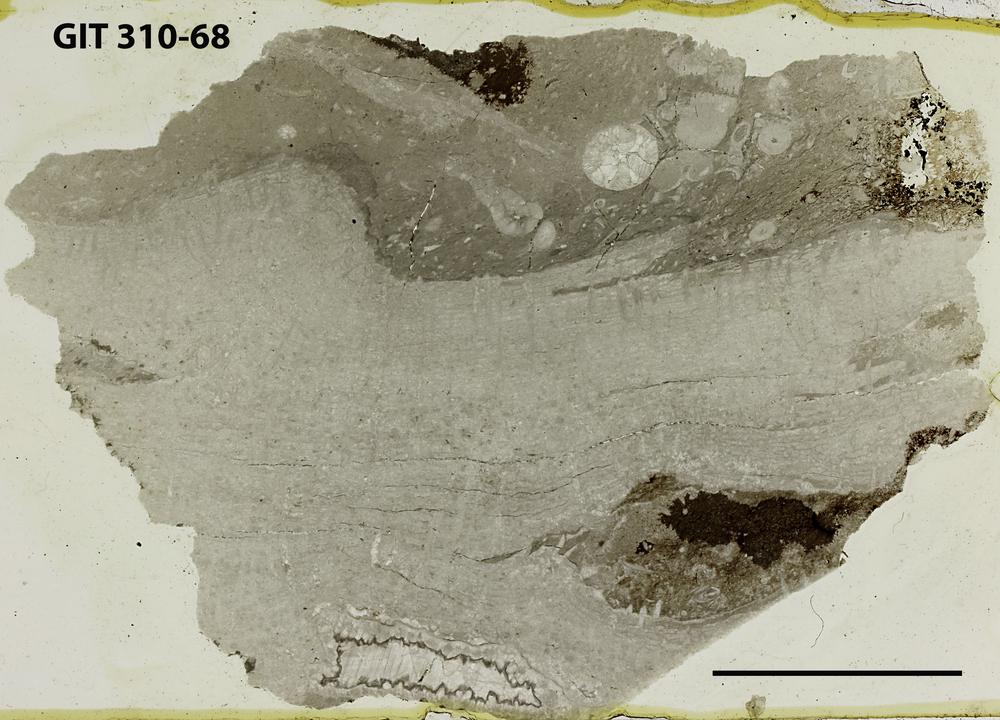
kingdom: Animalia
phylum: Porifera
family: Stromatoceriidae
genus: Cystistroma
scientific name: Cystistroma
